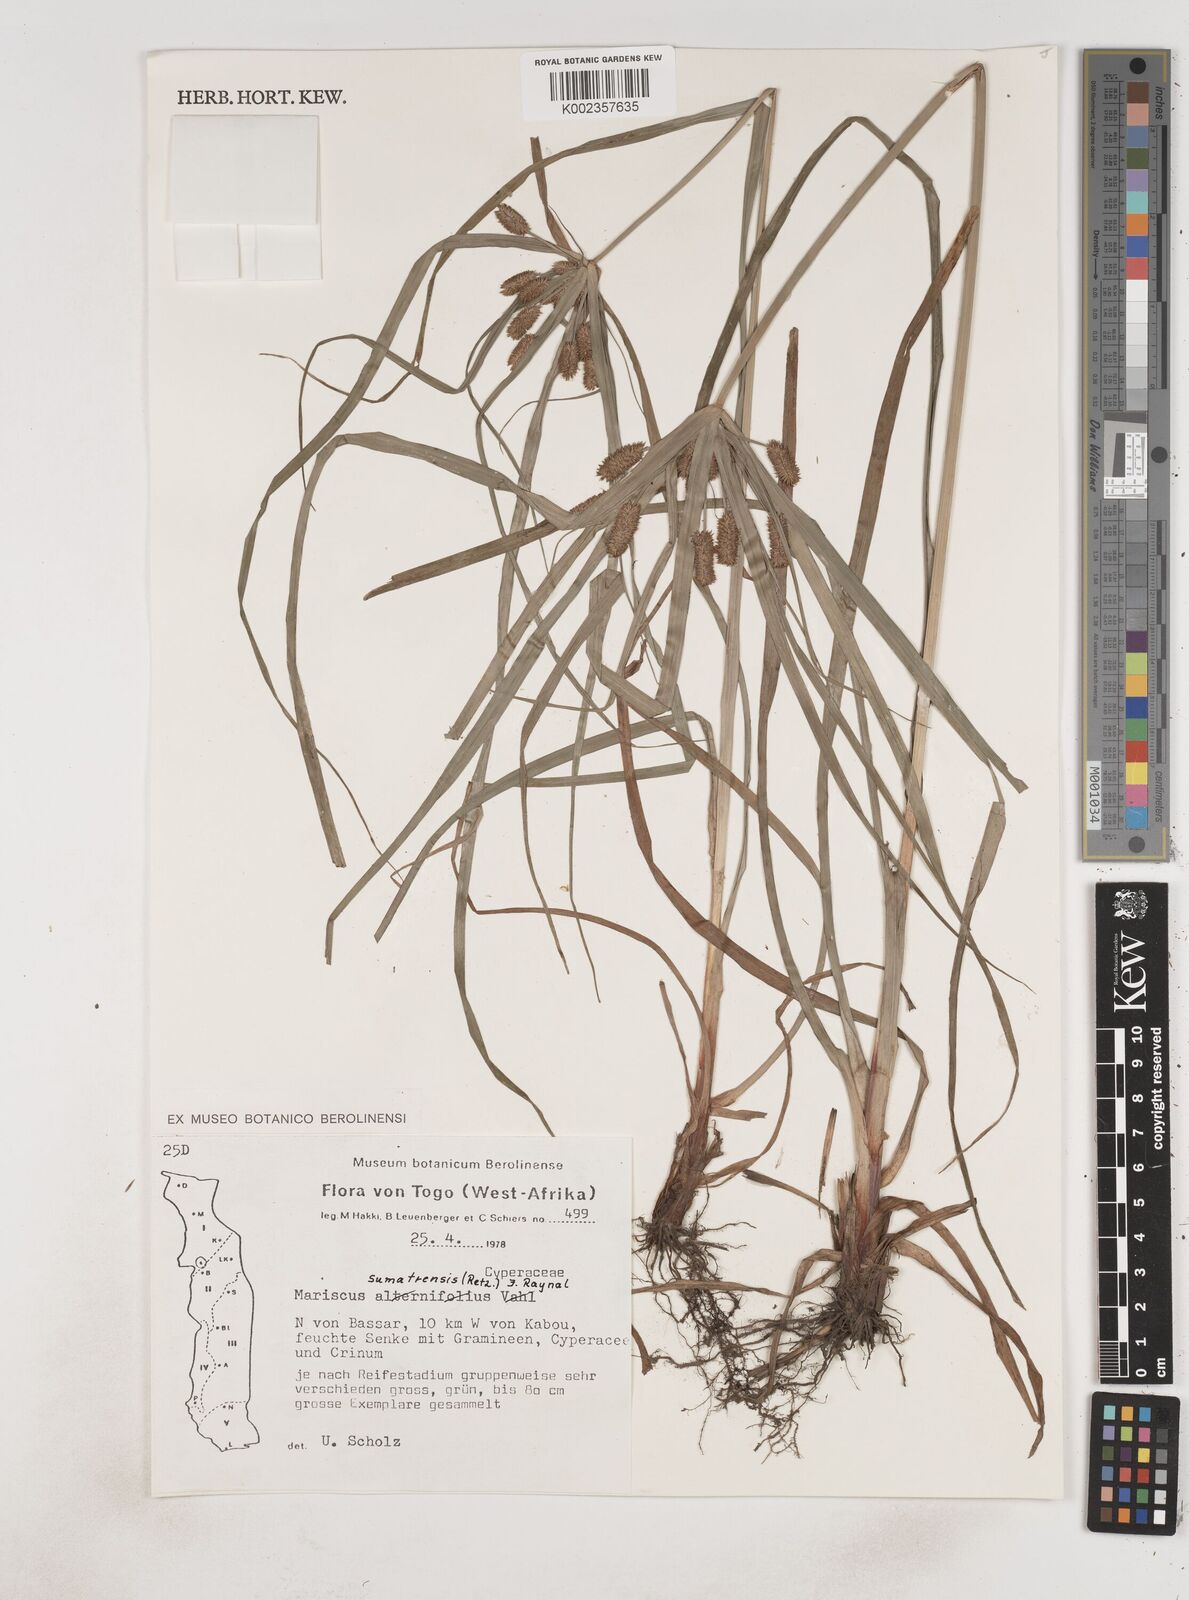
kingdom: Plantae
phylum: Tracheophyta
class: Liliopsida
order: Poales
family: Cyperaceae
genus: Cyperus
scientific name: Cyperus cyperoides
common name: Pacific island flat sedge
